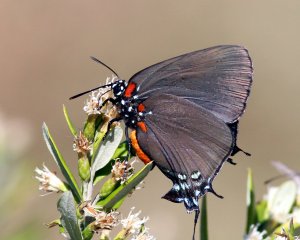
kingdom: Animalia
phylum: Arthropoda
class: Insecta
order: Lepidoptera
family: Lycaenidae
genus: Atlides
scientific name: Atlides halesus
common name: Great Purple Hairstreak
